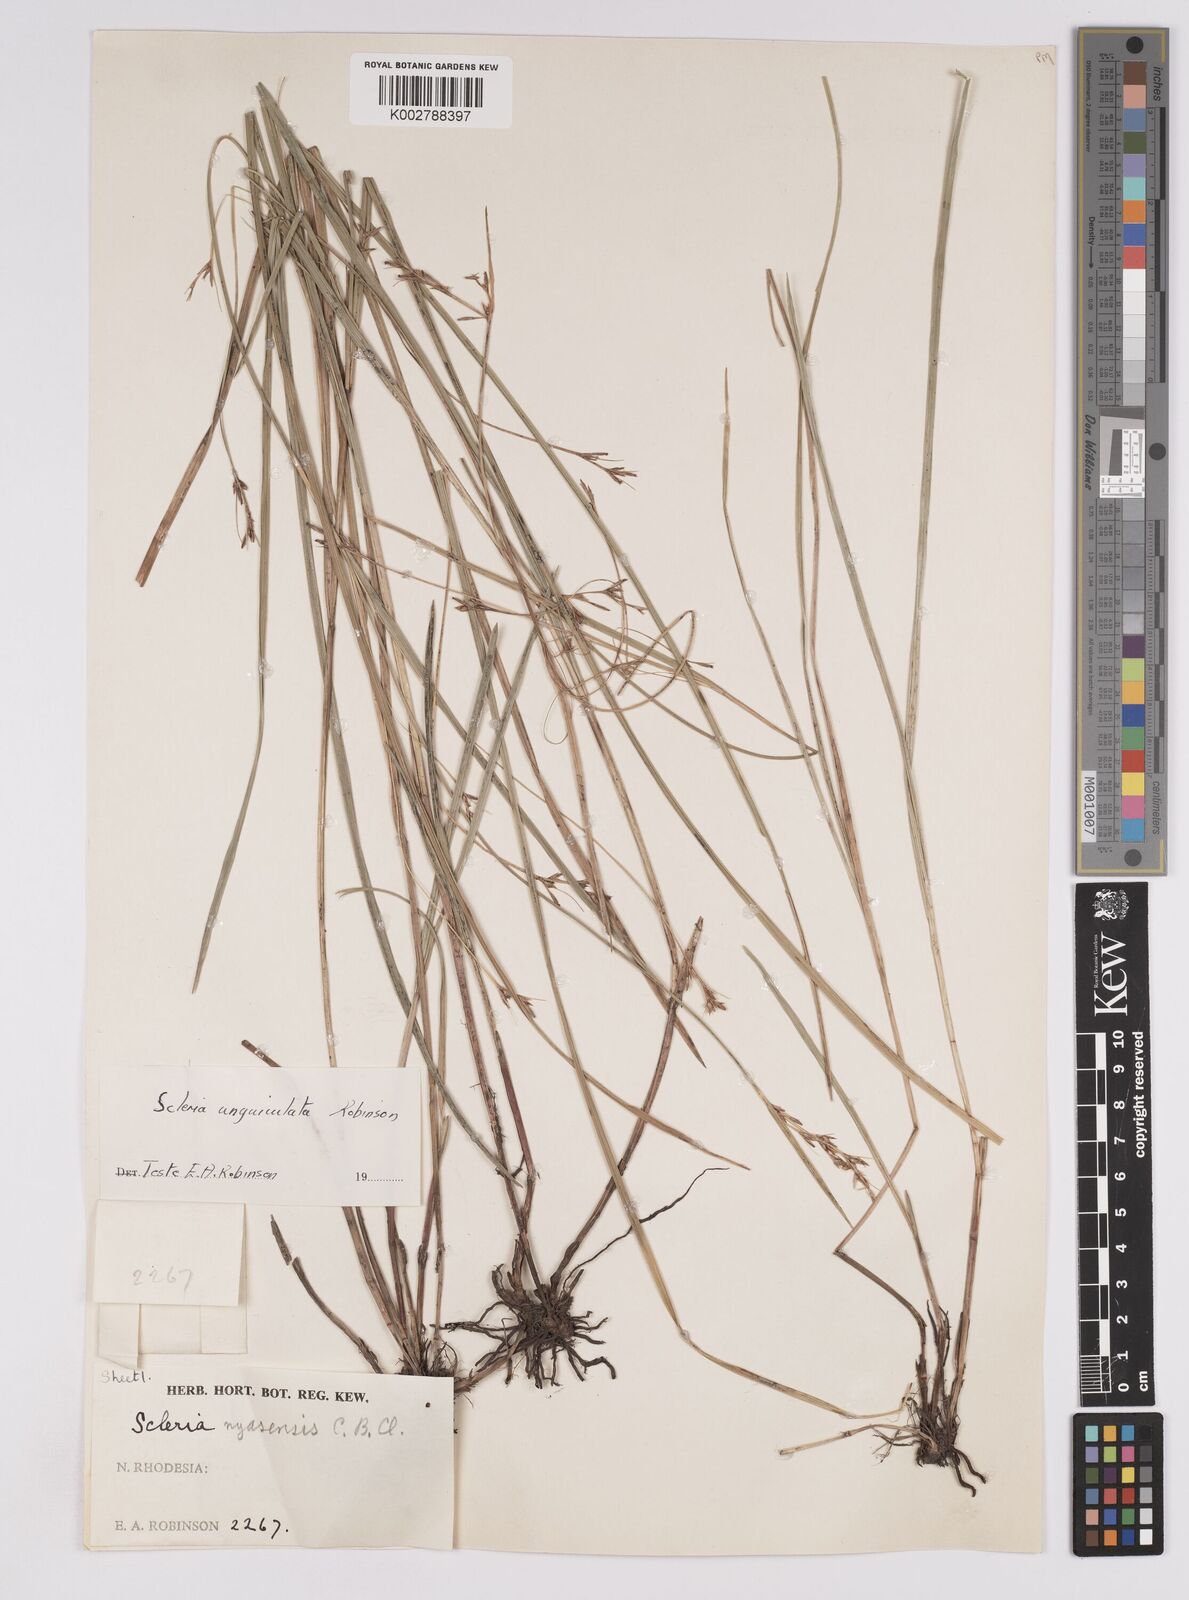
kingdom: Plantae
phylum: Tracheophyta
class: Liliopsida
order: Poales
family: Cyperaceae
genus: Scleria
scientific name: Scleria unguiculata
